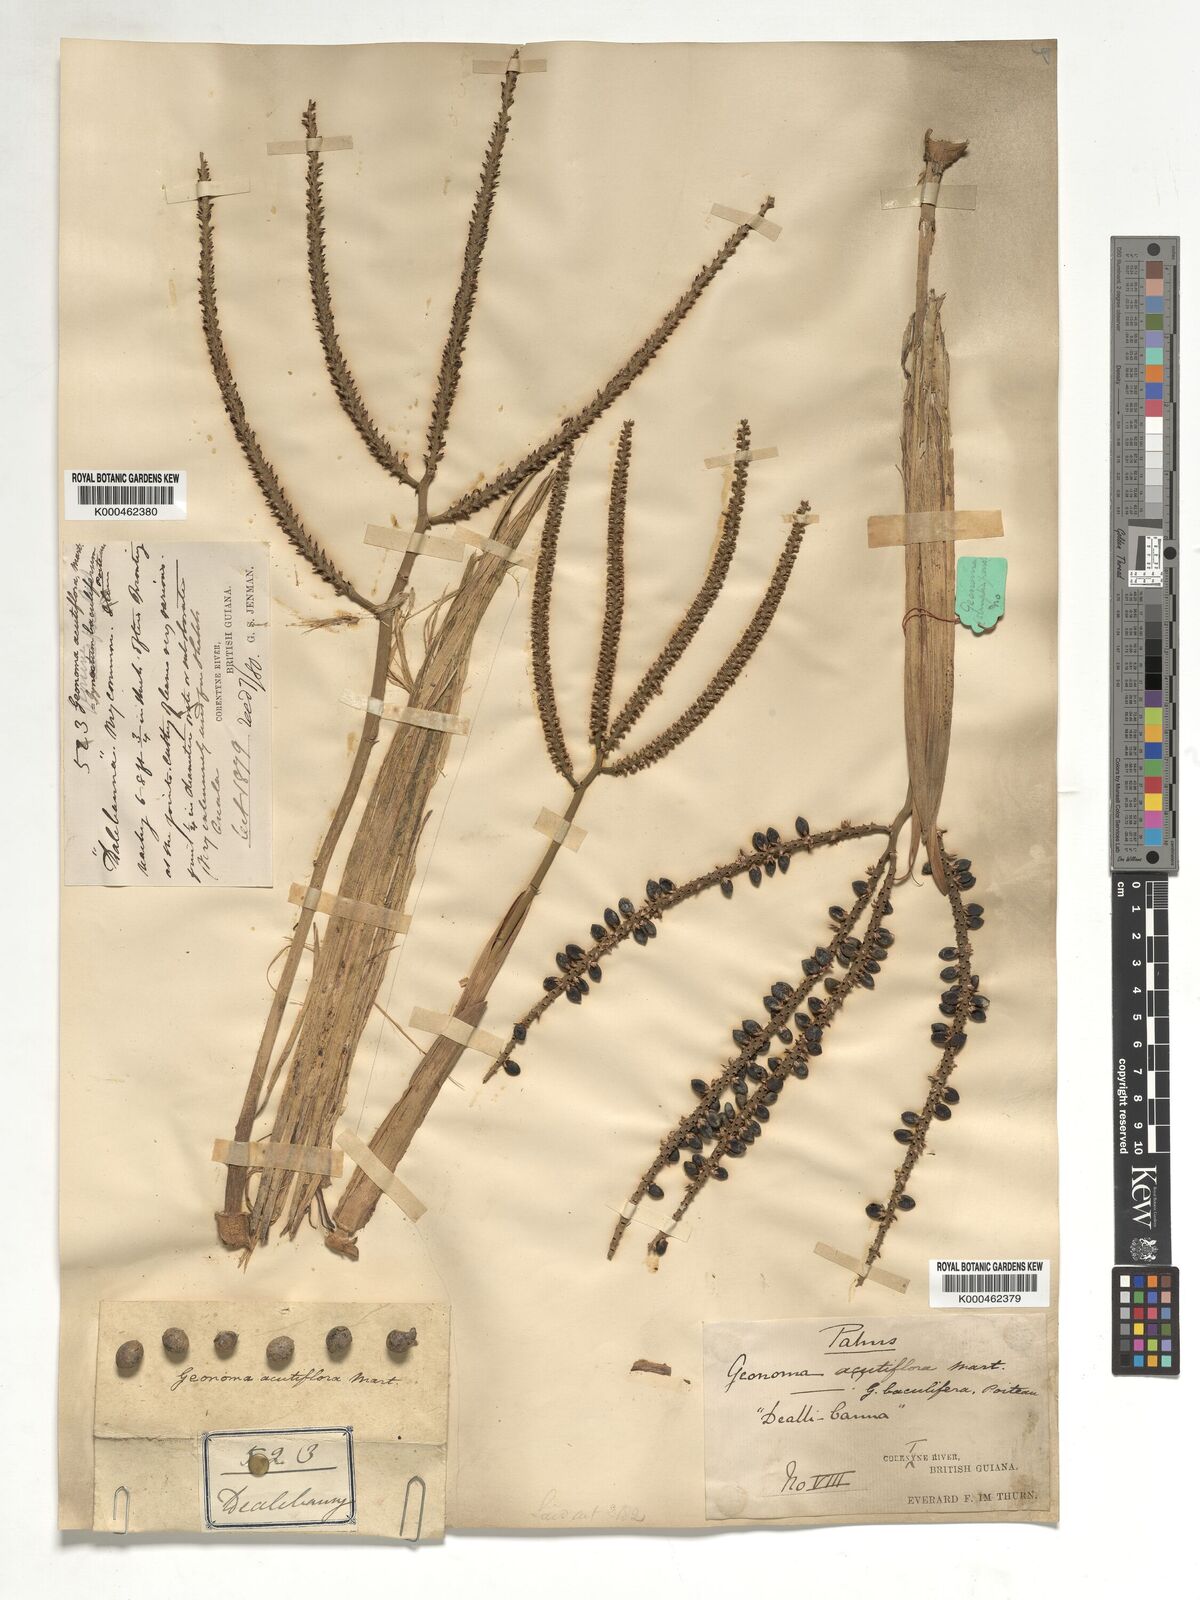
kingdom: Plantae
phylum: Tracheophyta
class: Liliopsida
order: Arecales
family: Arecaceae
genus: Geonoma
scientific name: Geonoma baculifera
